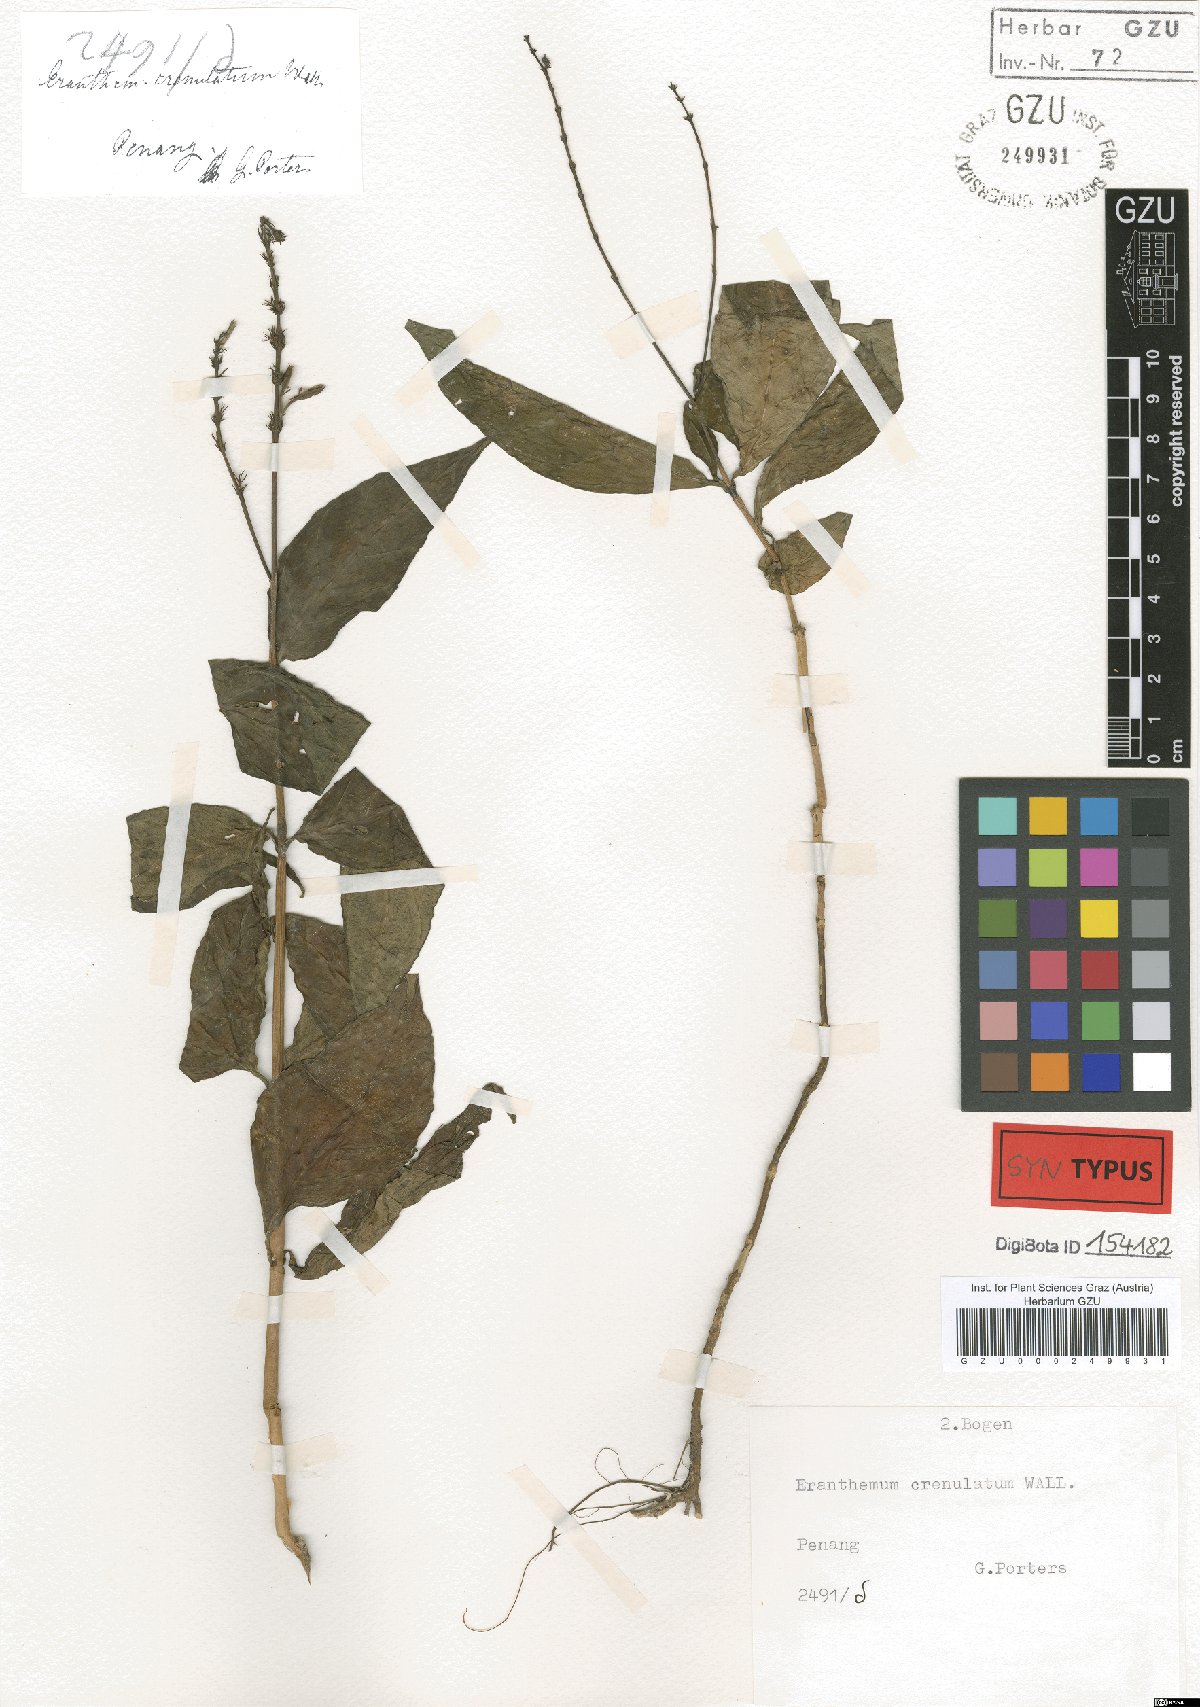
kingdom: Plantae
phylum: Tracheophyta
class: Magnoliopsida
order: Lamiales
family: Acanthaceae
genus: Pseuderanthemum
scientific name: Pseuderanthemum crenulatum
